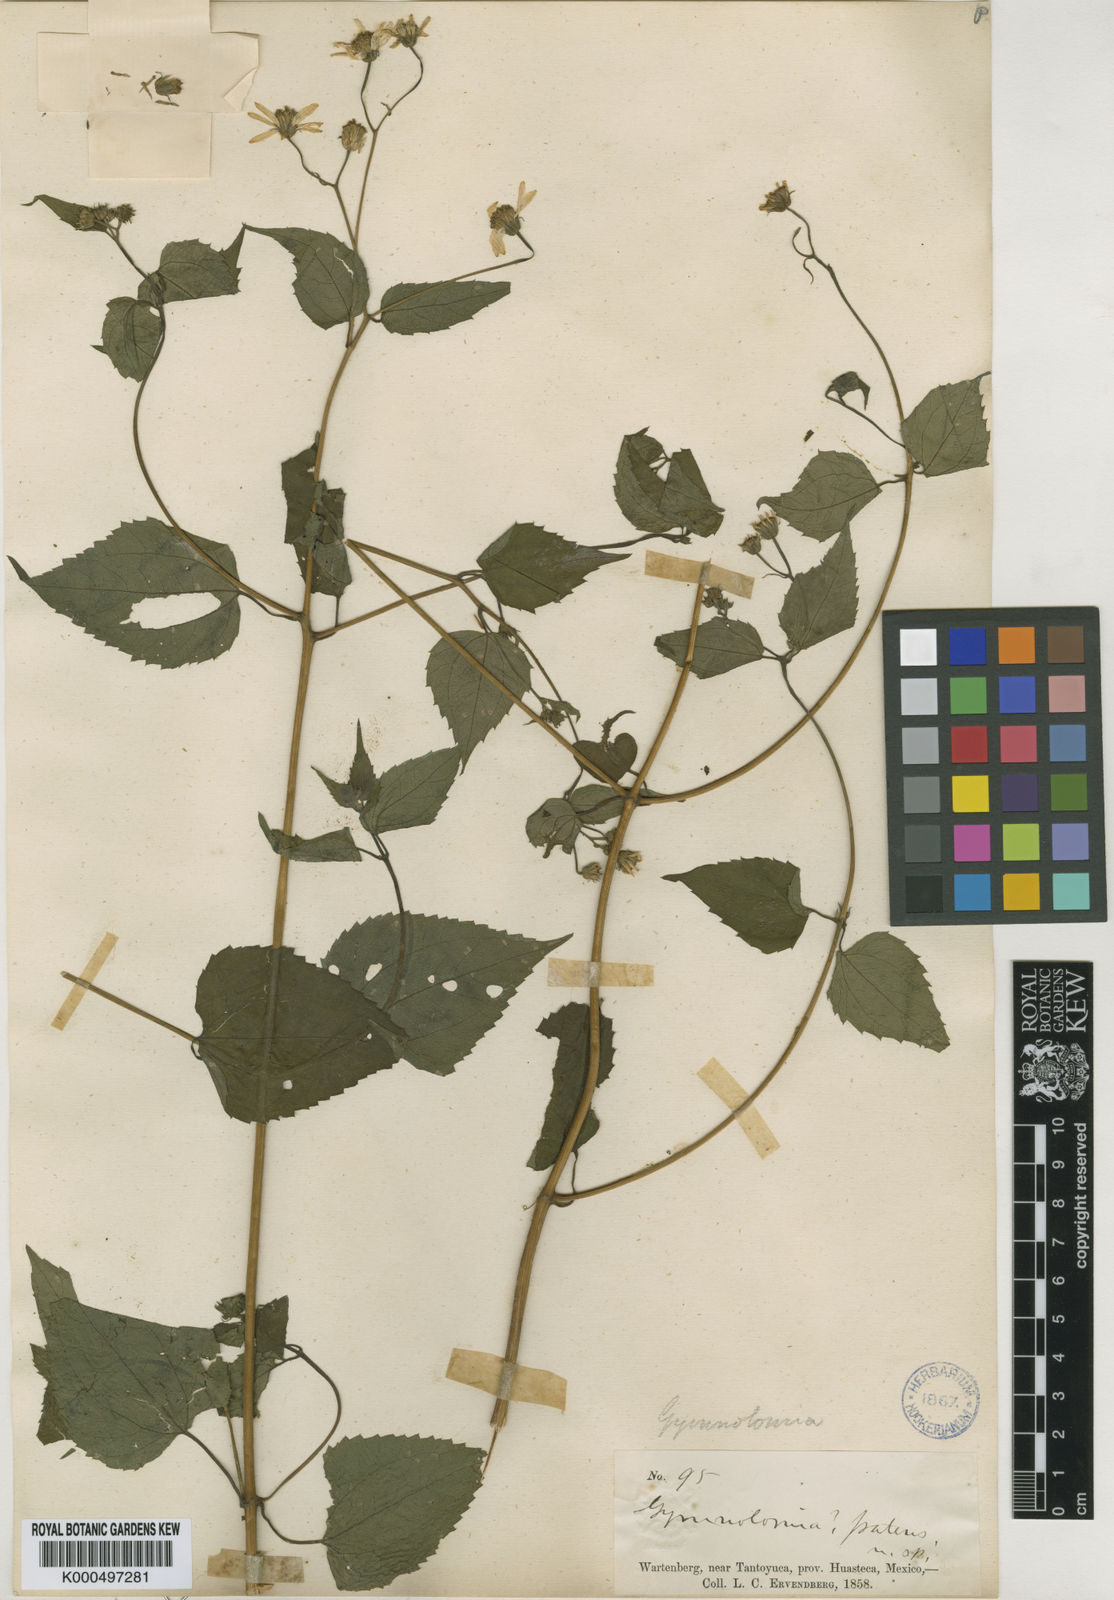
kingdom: Plantae
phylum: Tracheophyta
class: Magnoliopsida
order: Asterales
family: Asteraceae
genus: Hymenostephium
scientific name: Hymenostephium cordatum
